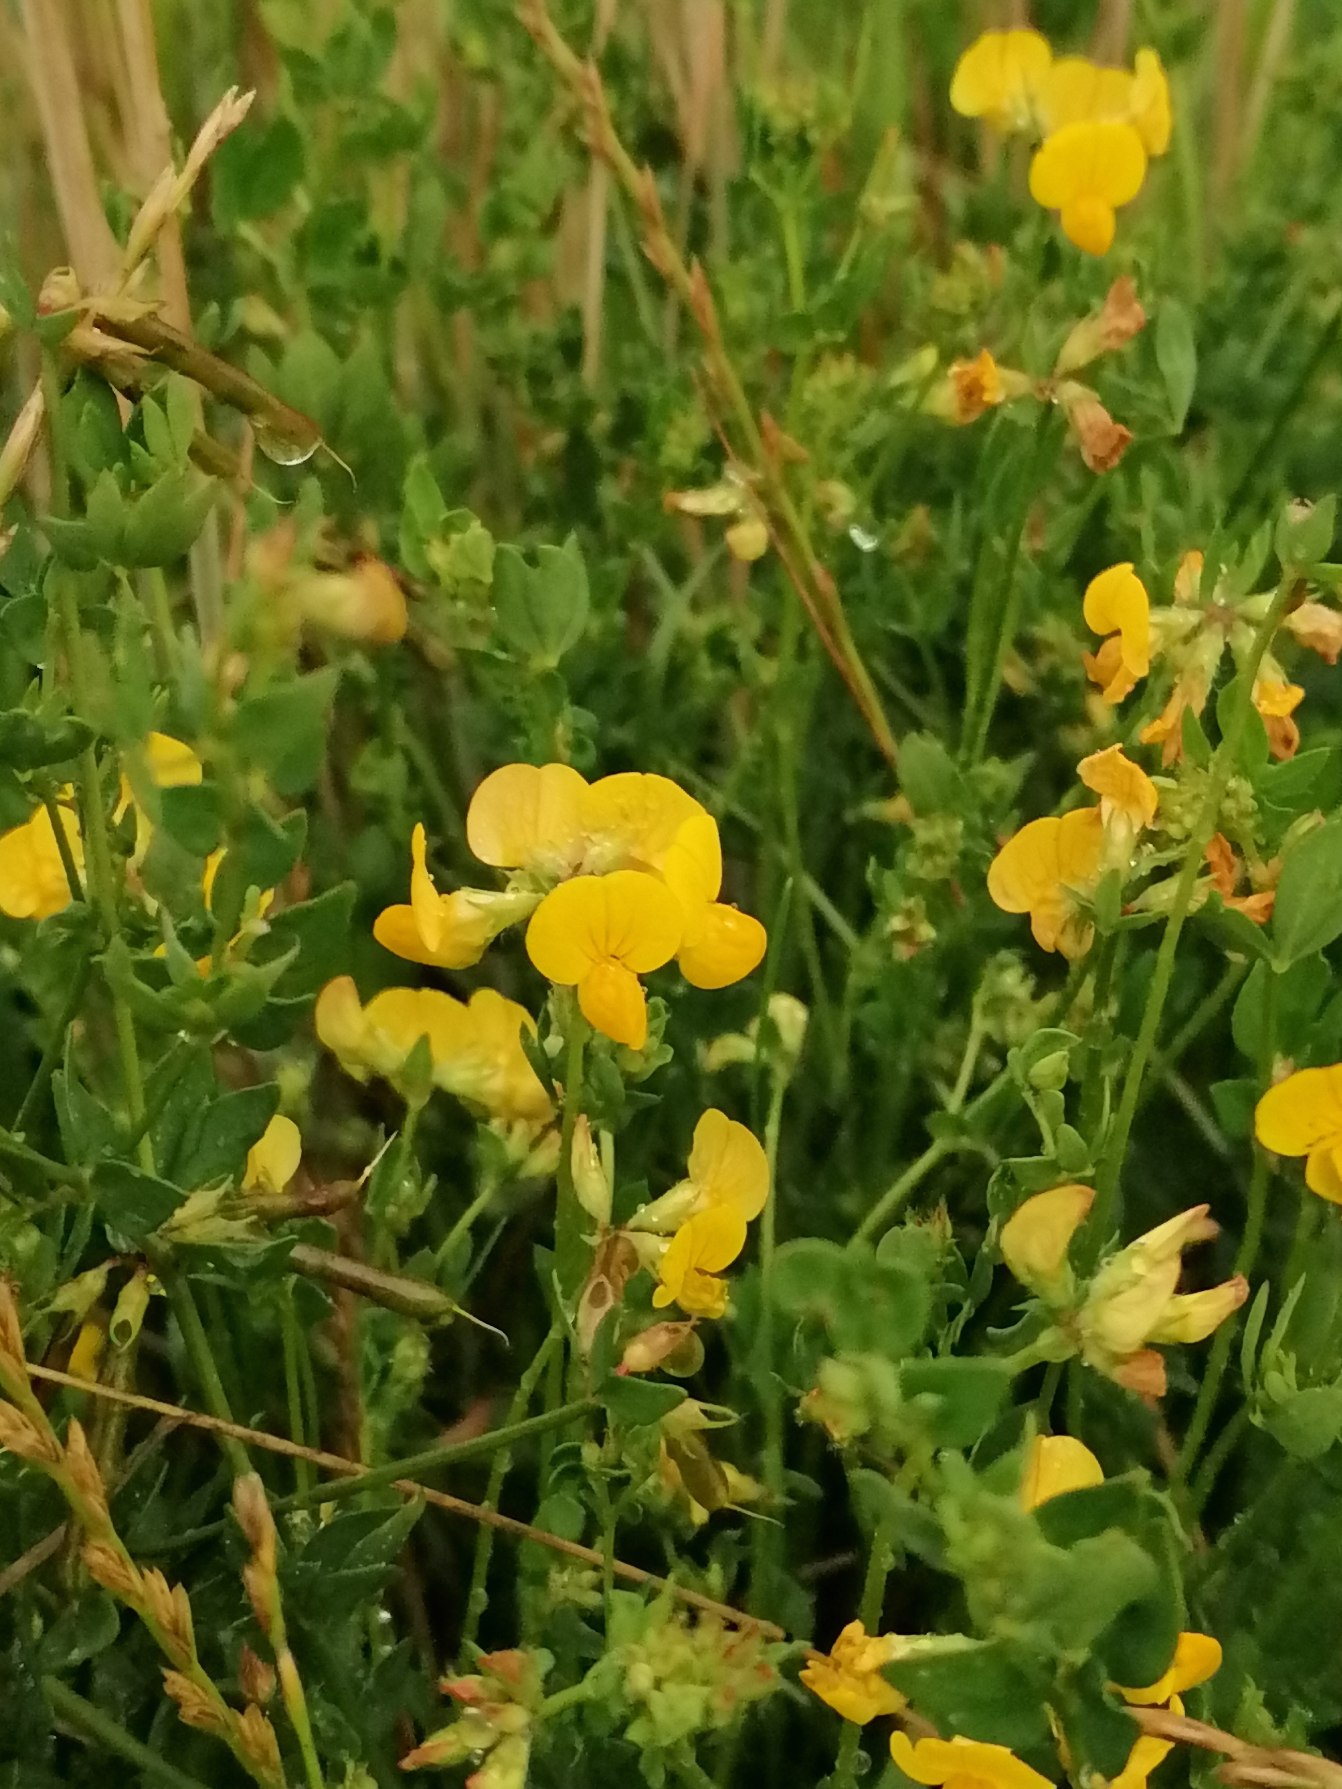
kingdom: Plantae
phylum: Tracheophyta
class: Magnoliopsida
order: Fabales
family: Fabaceae
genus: Lotus
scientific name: Lotus corniculatus
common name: Almindelig kællingetand
